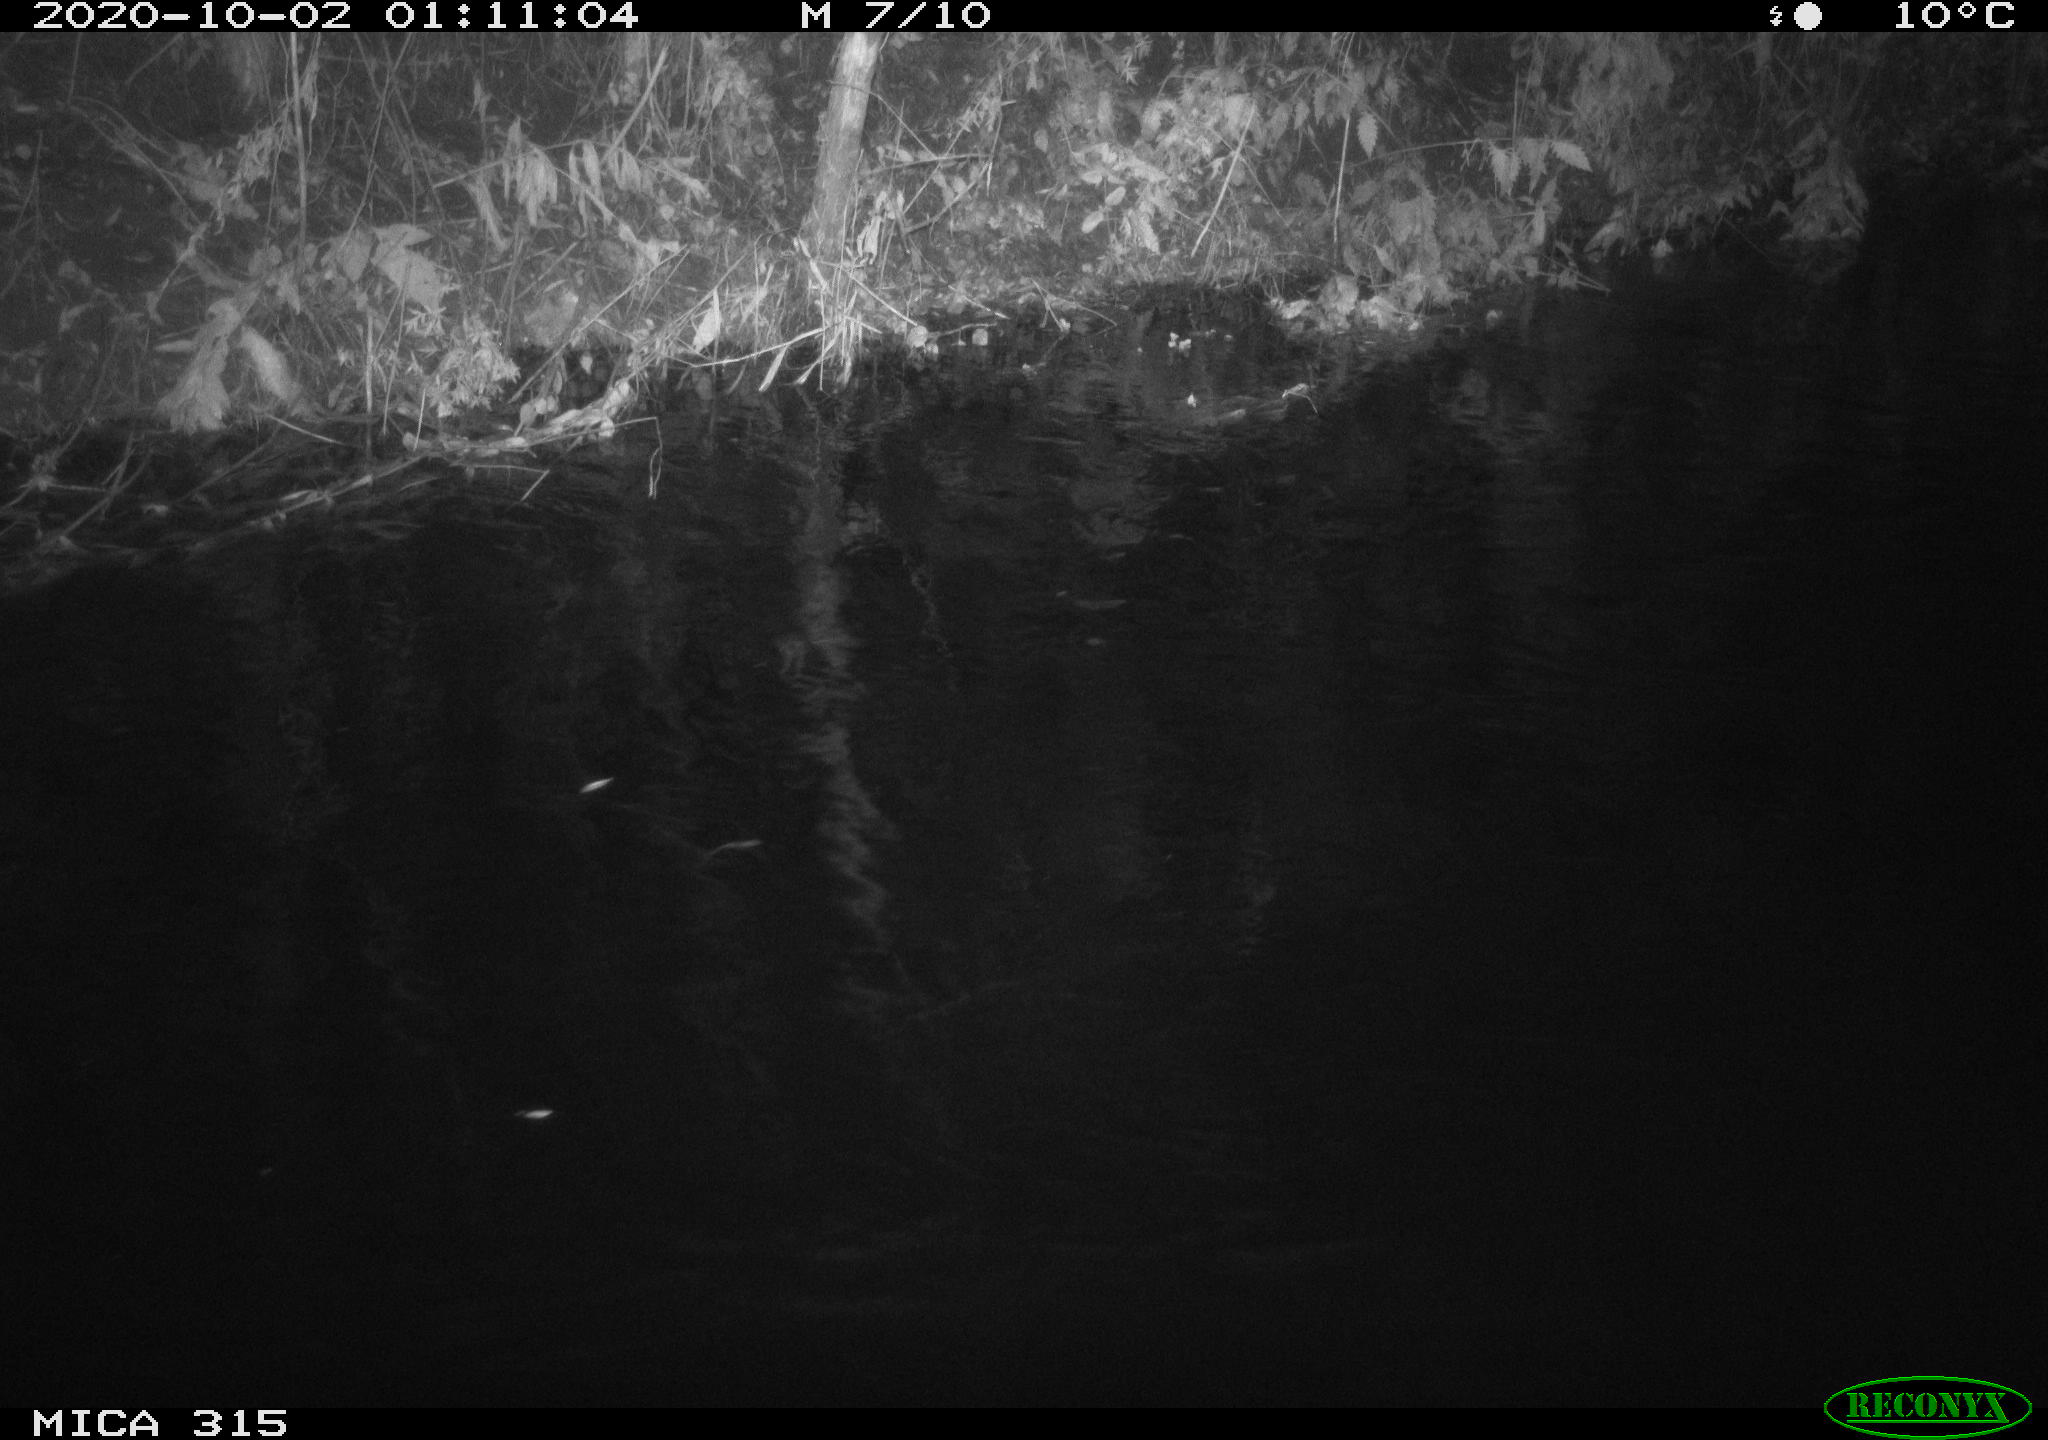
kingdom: Animalia
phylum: Chordata
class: Aves
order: Anseriformes
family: Anatidae
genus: Anas
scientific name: Anas platyrhynchos
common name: Mallard
